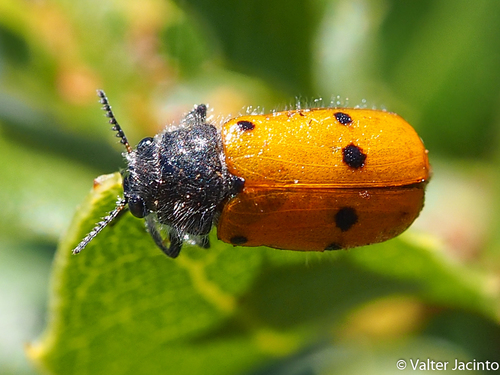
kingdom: Animalia
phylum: Arthropoda
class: Insecta
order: Coleoptera
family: Chrysomelidae
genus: Lachnaia
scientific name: Lachnaia hirta
